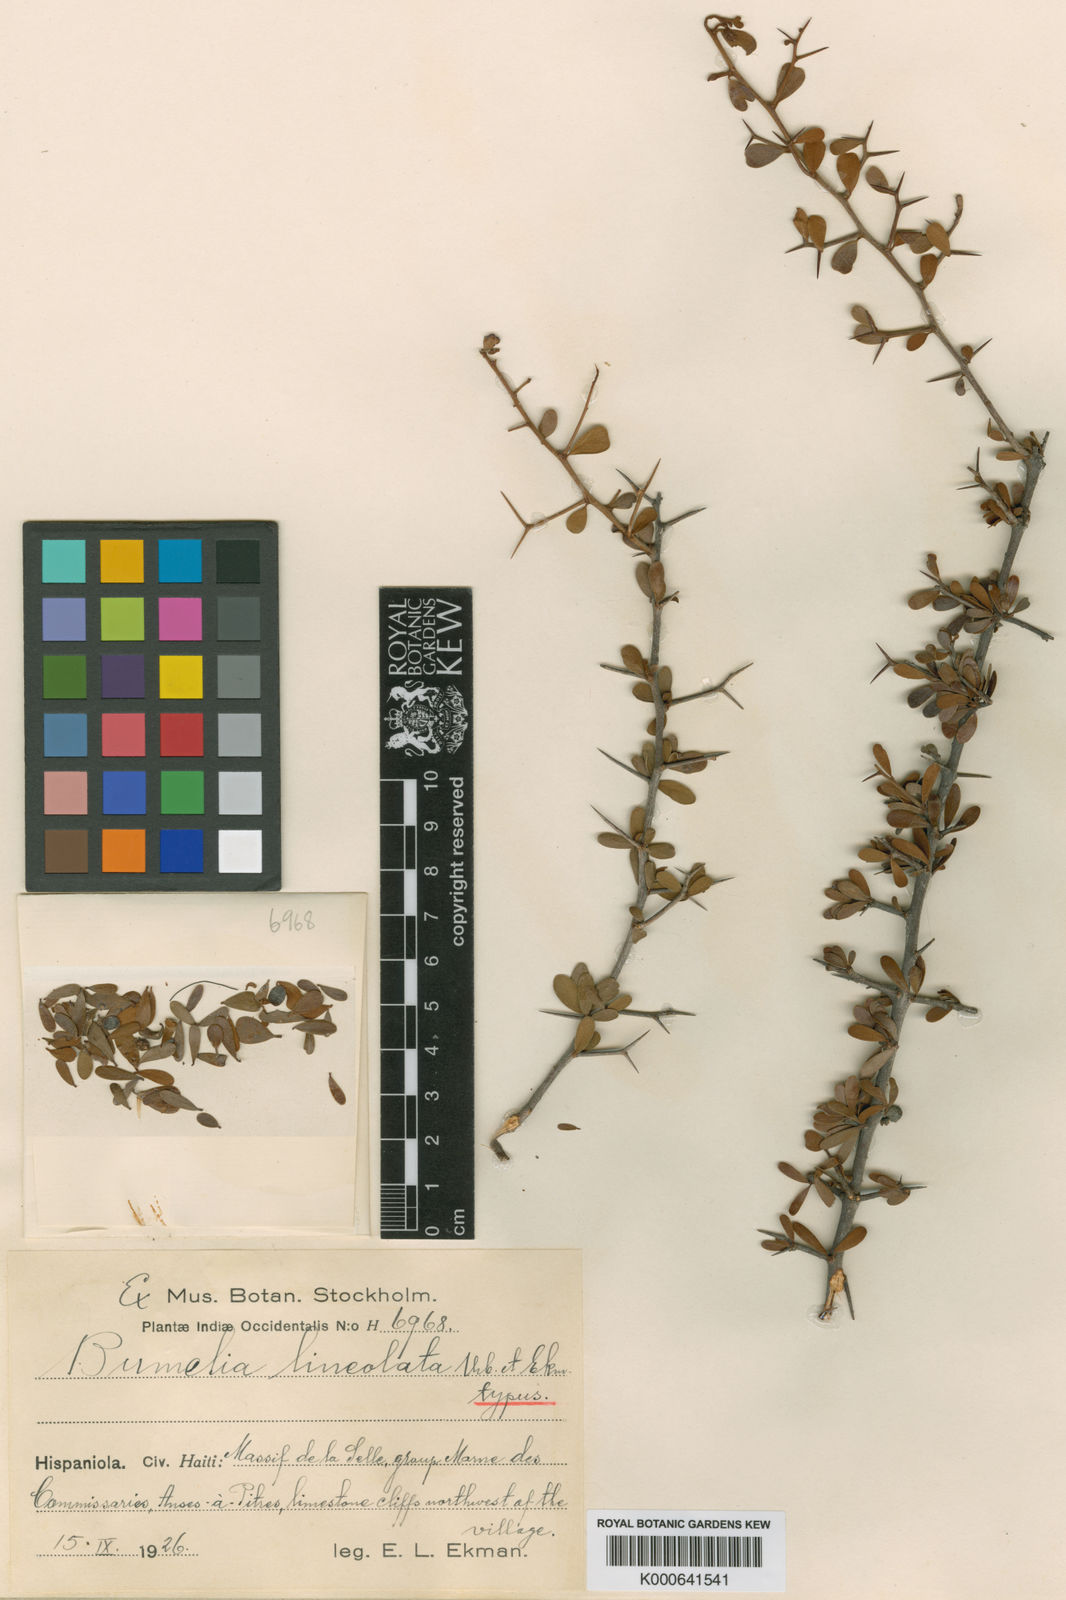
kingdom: Plantae
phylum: Tracheophyta
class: Magnoliopsida
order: Ericales
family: Sapotaceae
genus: Sideroxylon
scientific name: Sideroxylon obovatum
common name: Breakbill
